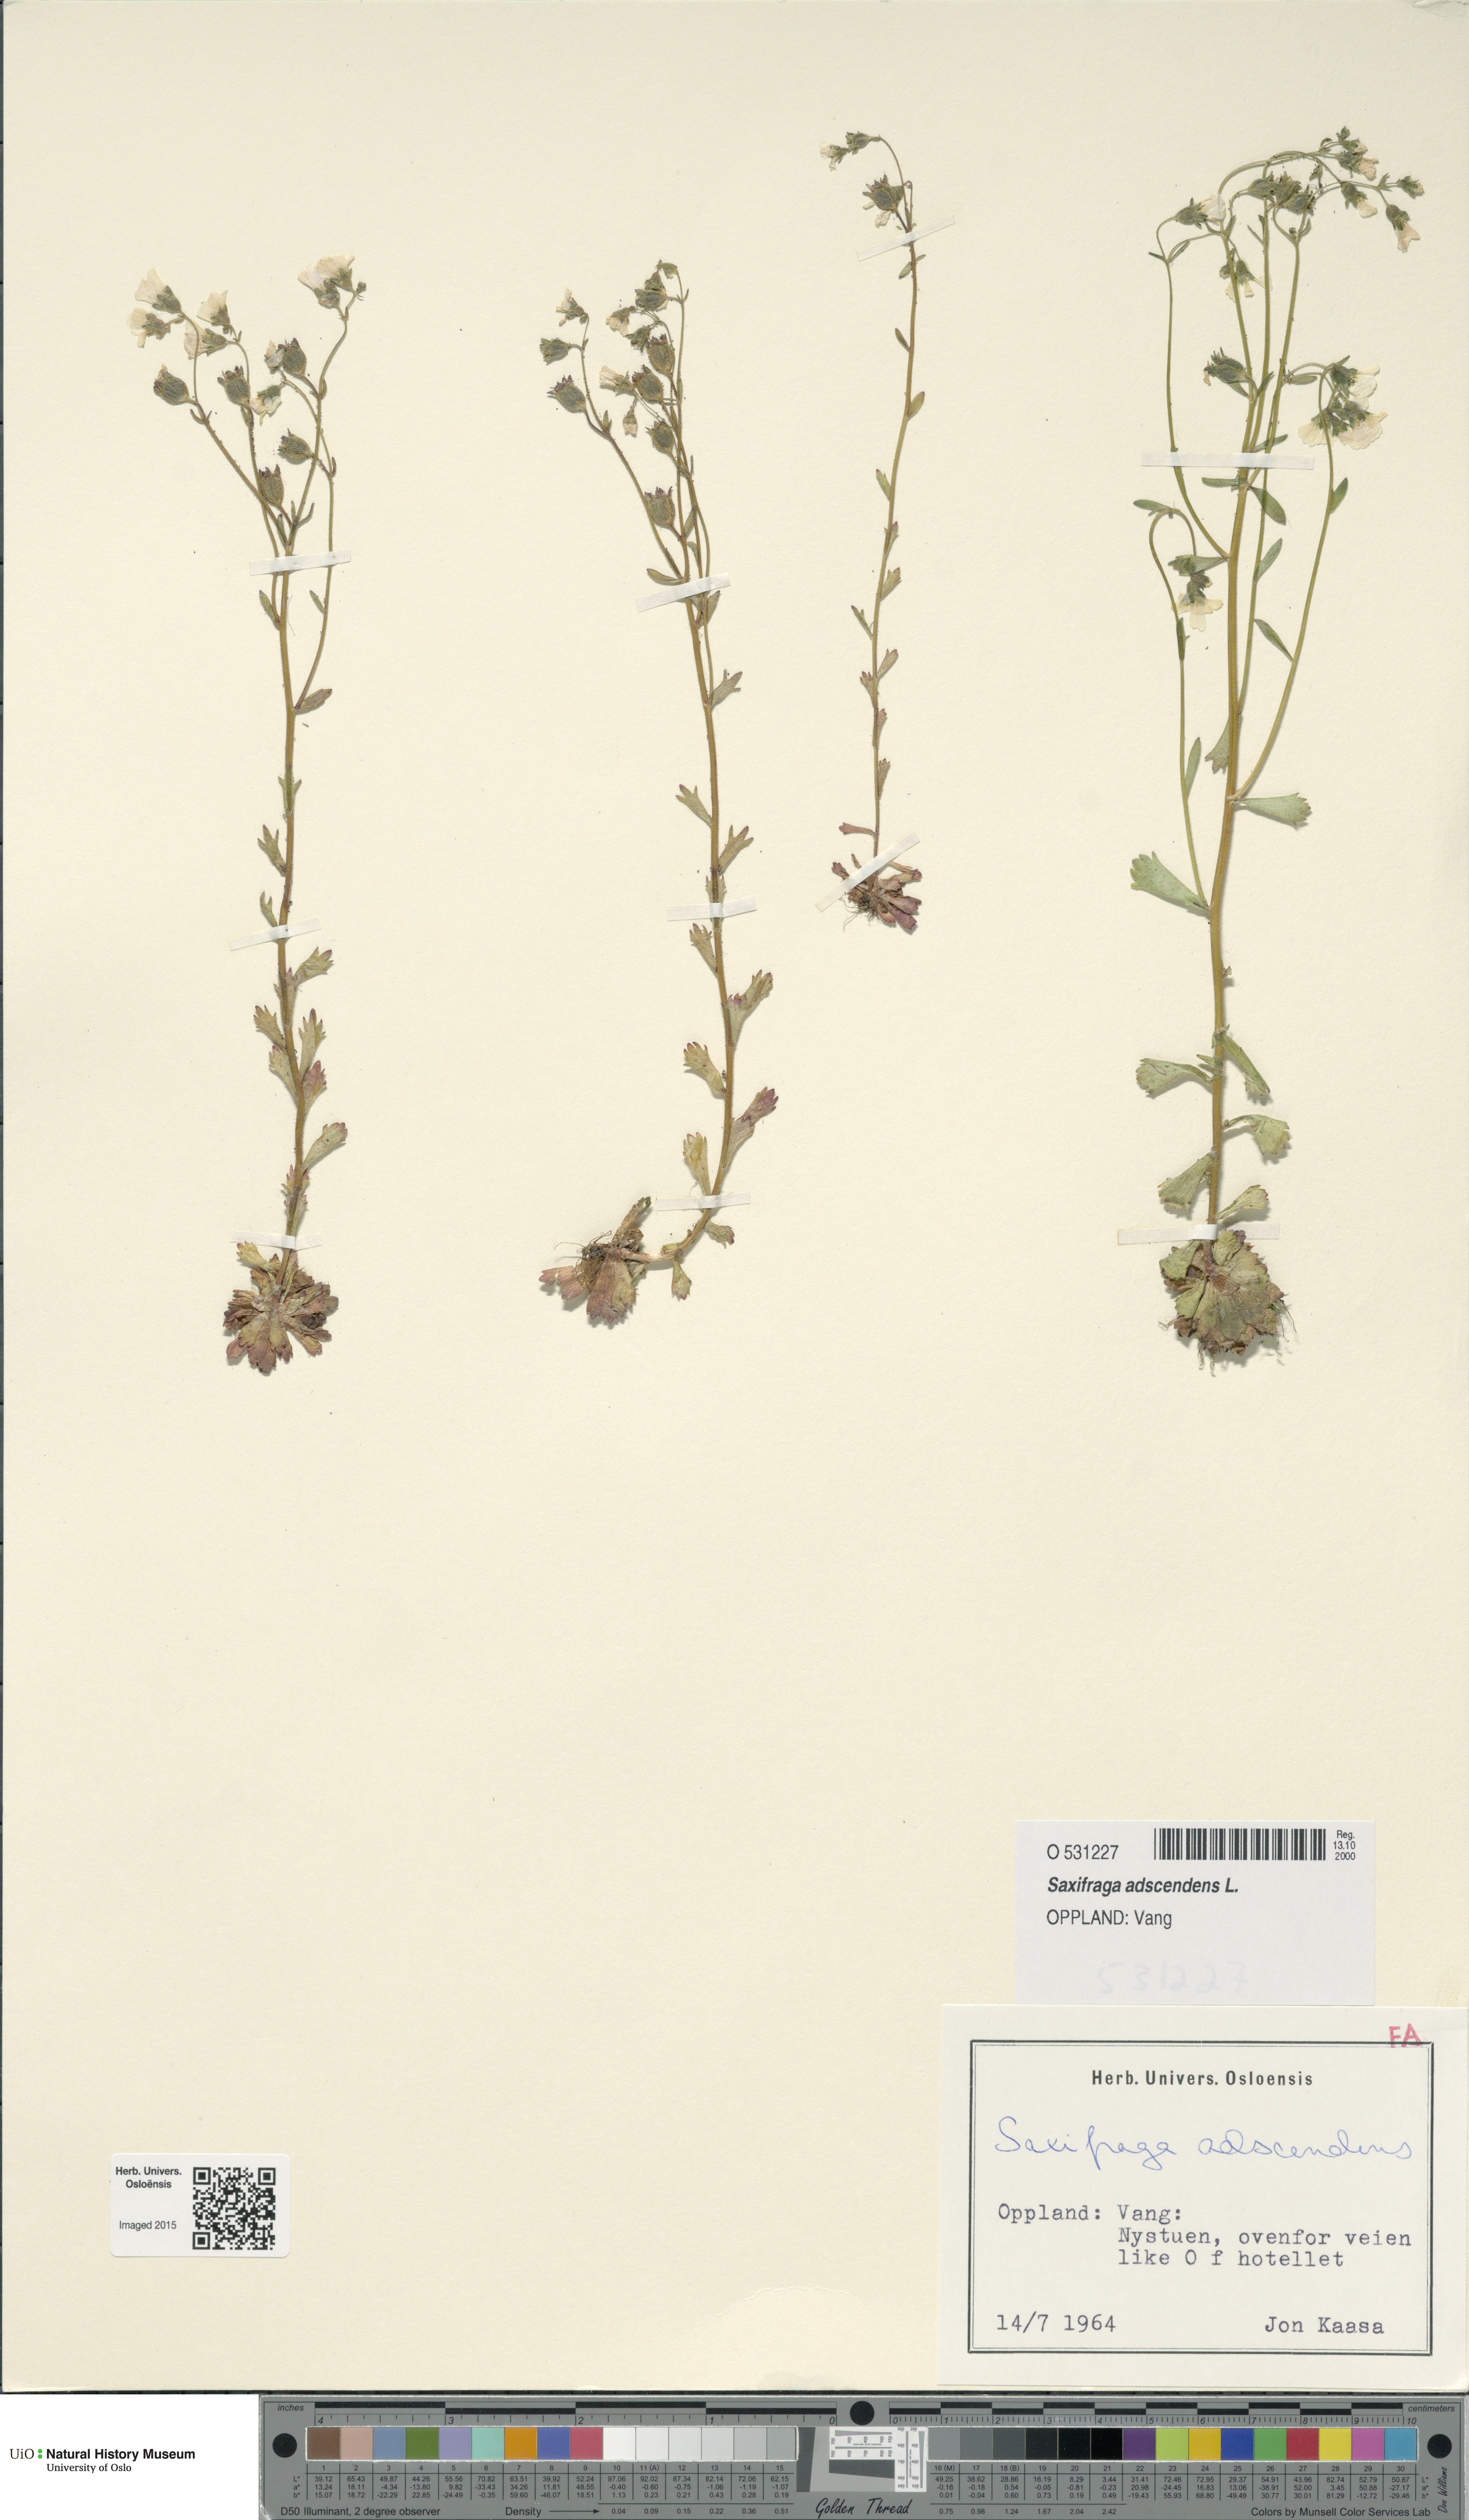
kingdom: Plantae
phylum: Tracheophyta
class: Magnoliopsida
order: Saxifragales
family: Saxifragaceae
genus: Saxifraga
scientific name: Saxifraga adscendens
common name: Ascending saxifrage
